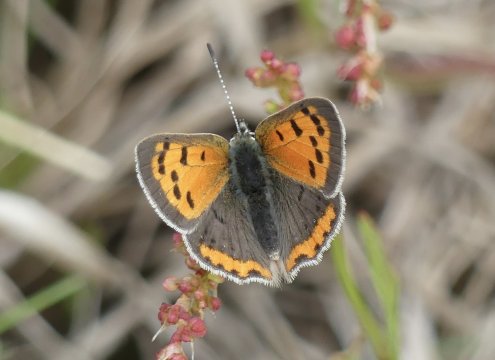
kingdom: Animalia
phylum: Arthropoda
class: Insecta
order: Lepidoptera
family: Lycaenidae
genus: Lycaena
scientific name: Lycaena phlaeas
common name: American Copper
